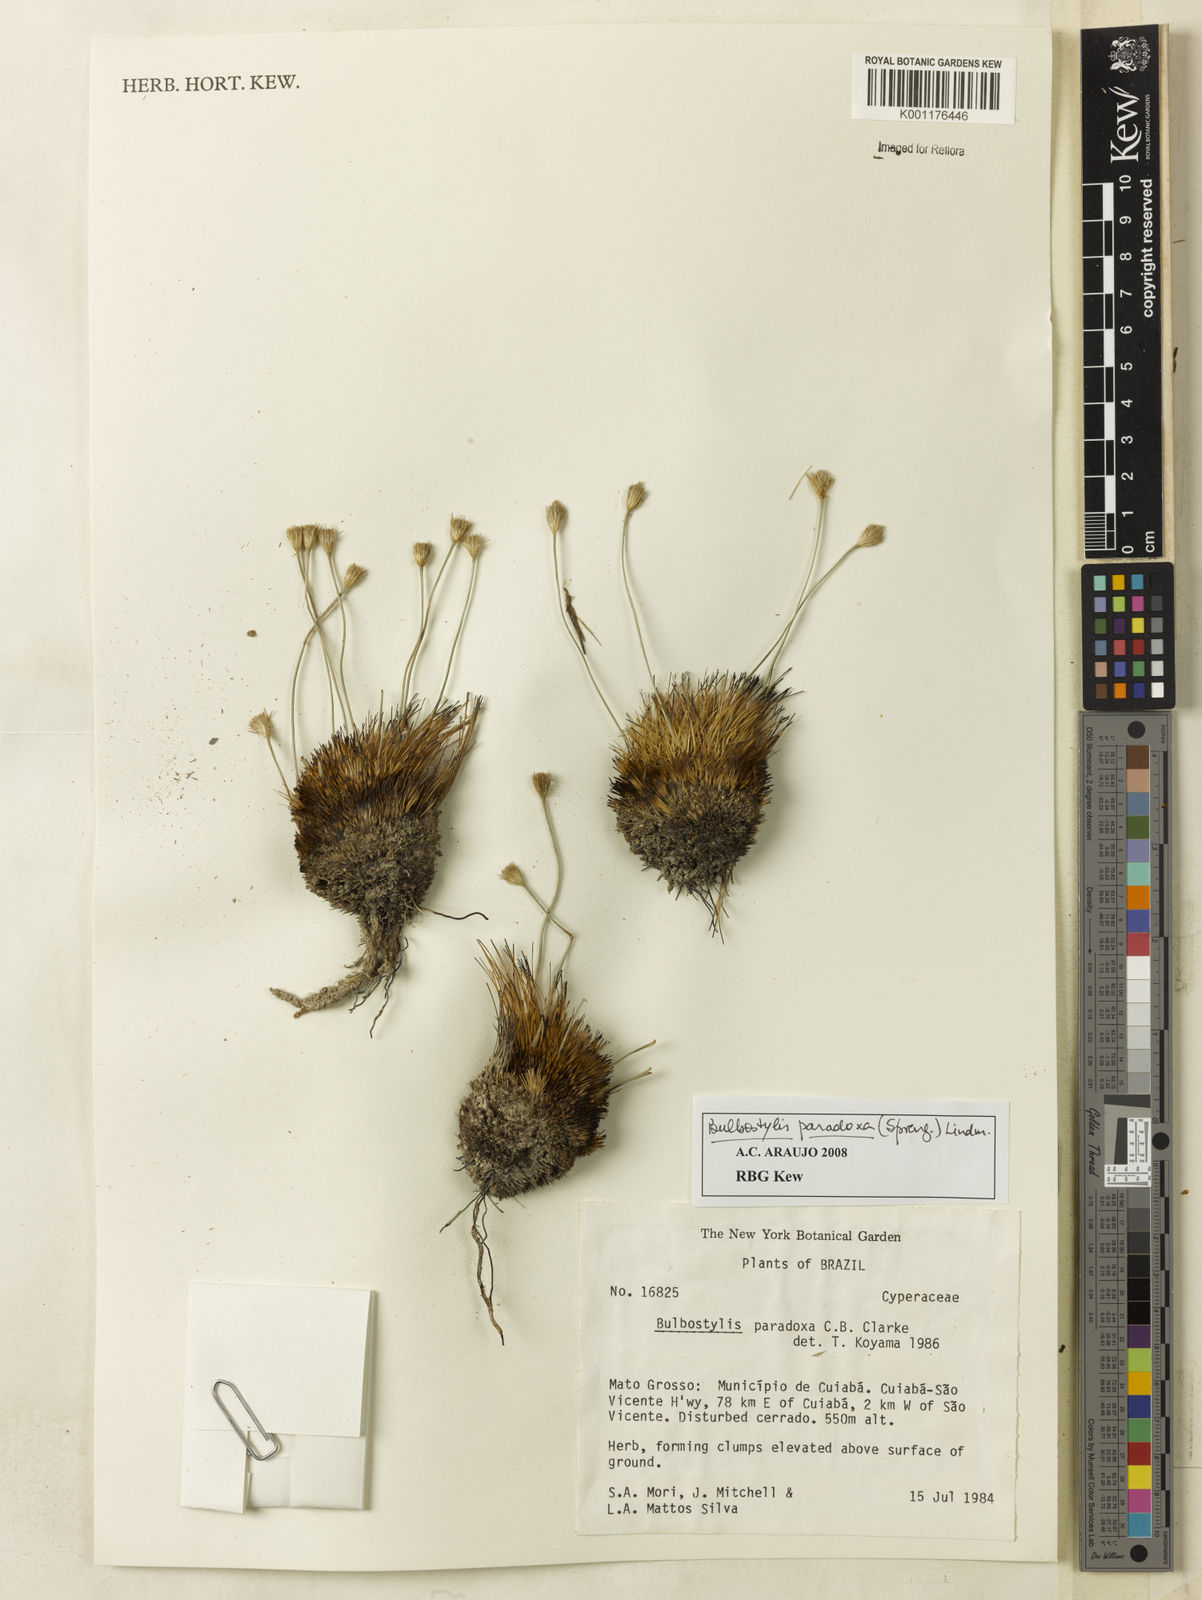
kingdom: Plantae
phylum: Tracheophyta
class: Liliopsida
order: Poales
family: Cyperaceae
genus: Bulbostylis
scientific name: Bulbostylis paradoxa
